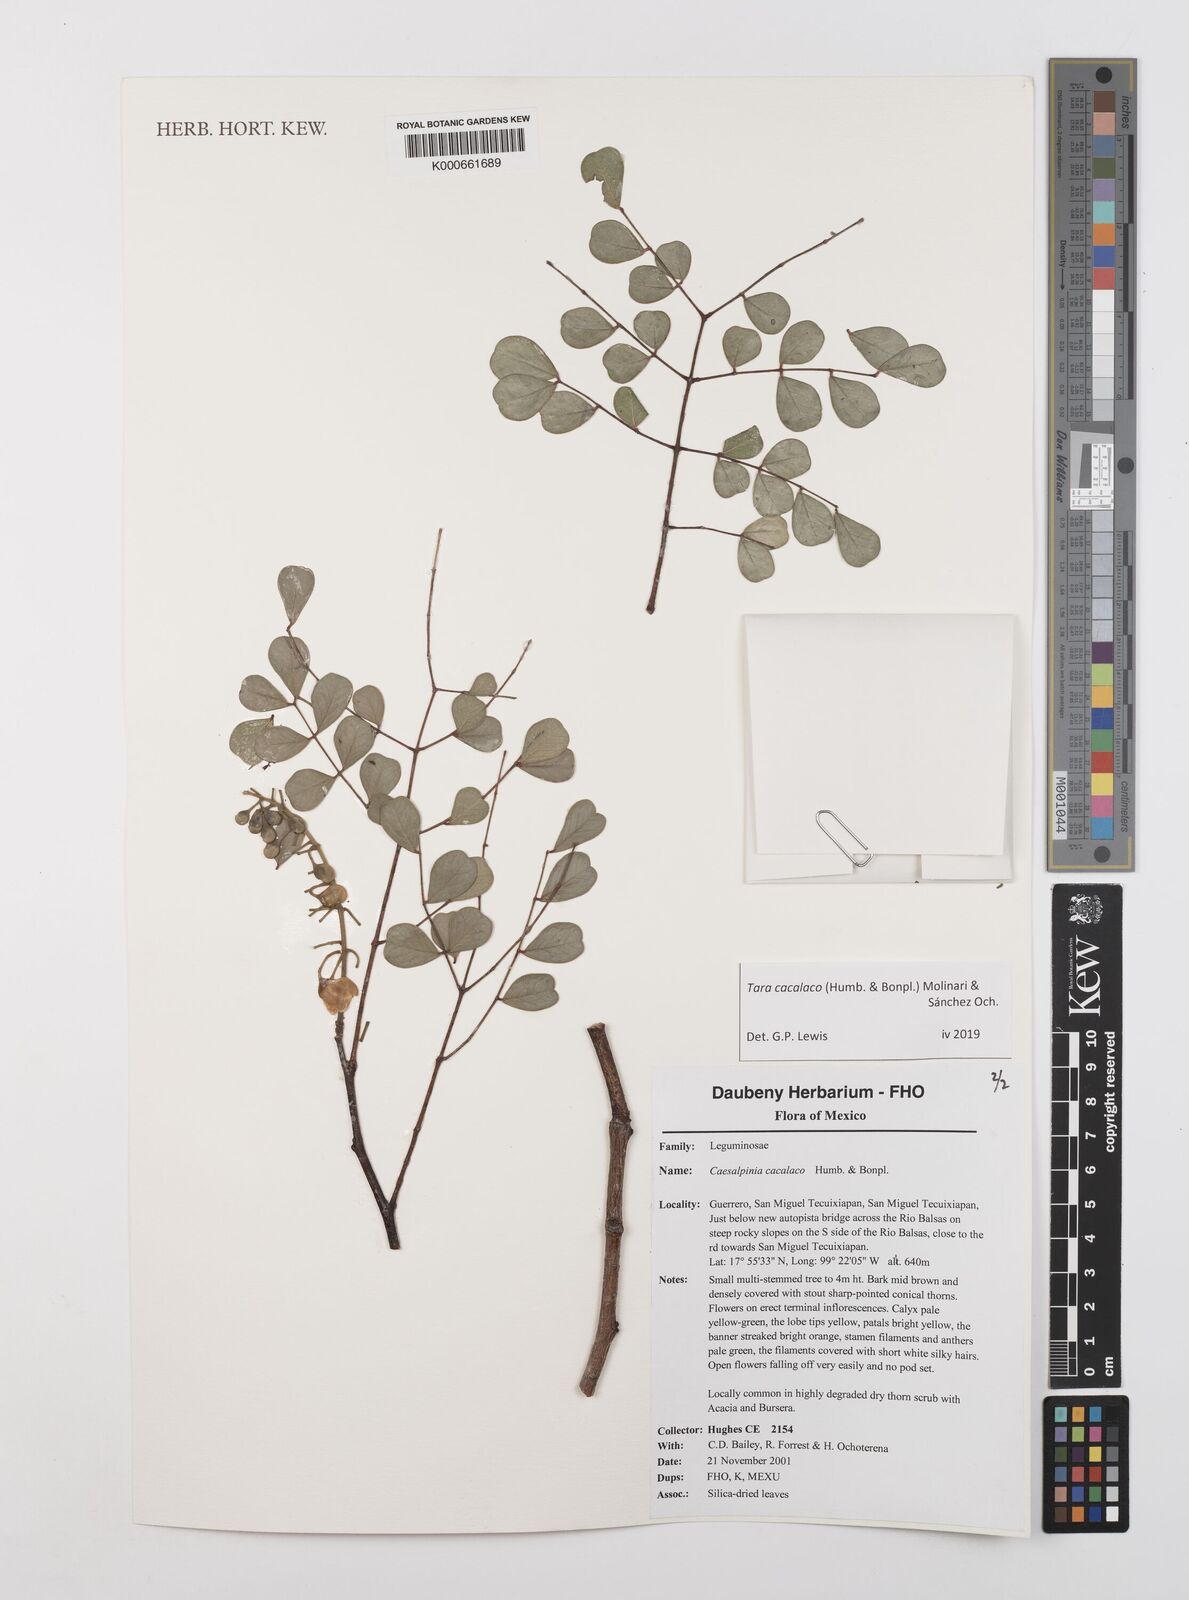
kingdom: Plantae
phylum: Tracheophyta
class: Magnoliopsida
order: Fabales
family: Fabaceae
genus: Tara
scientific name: Tara cacalaco
